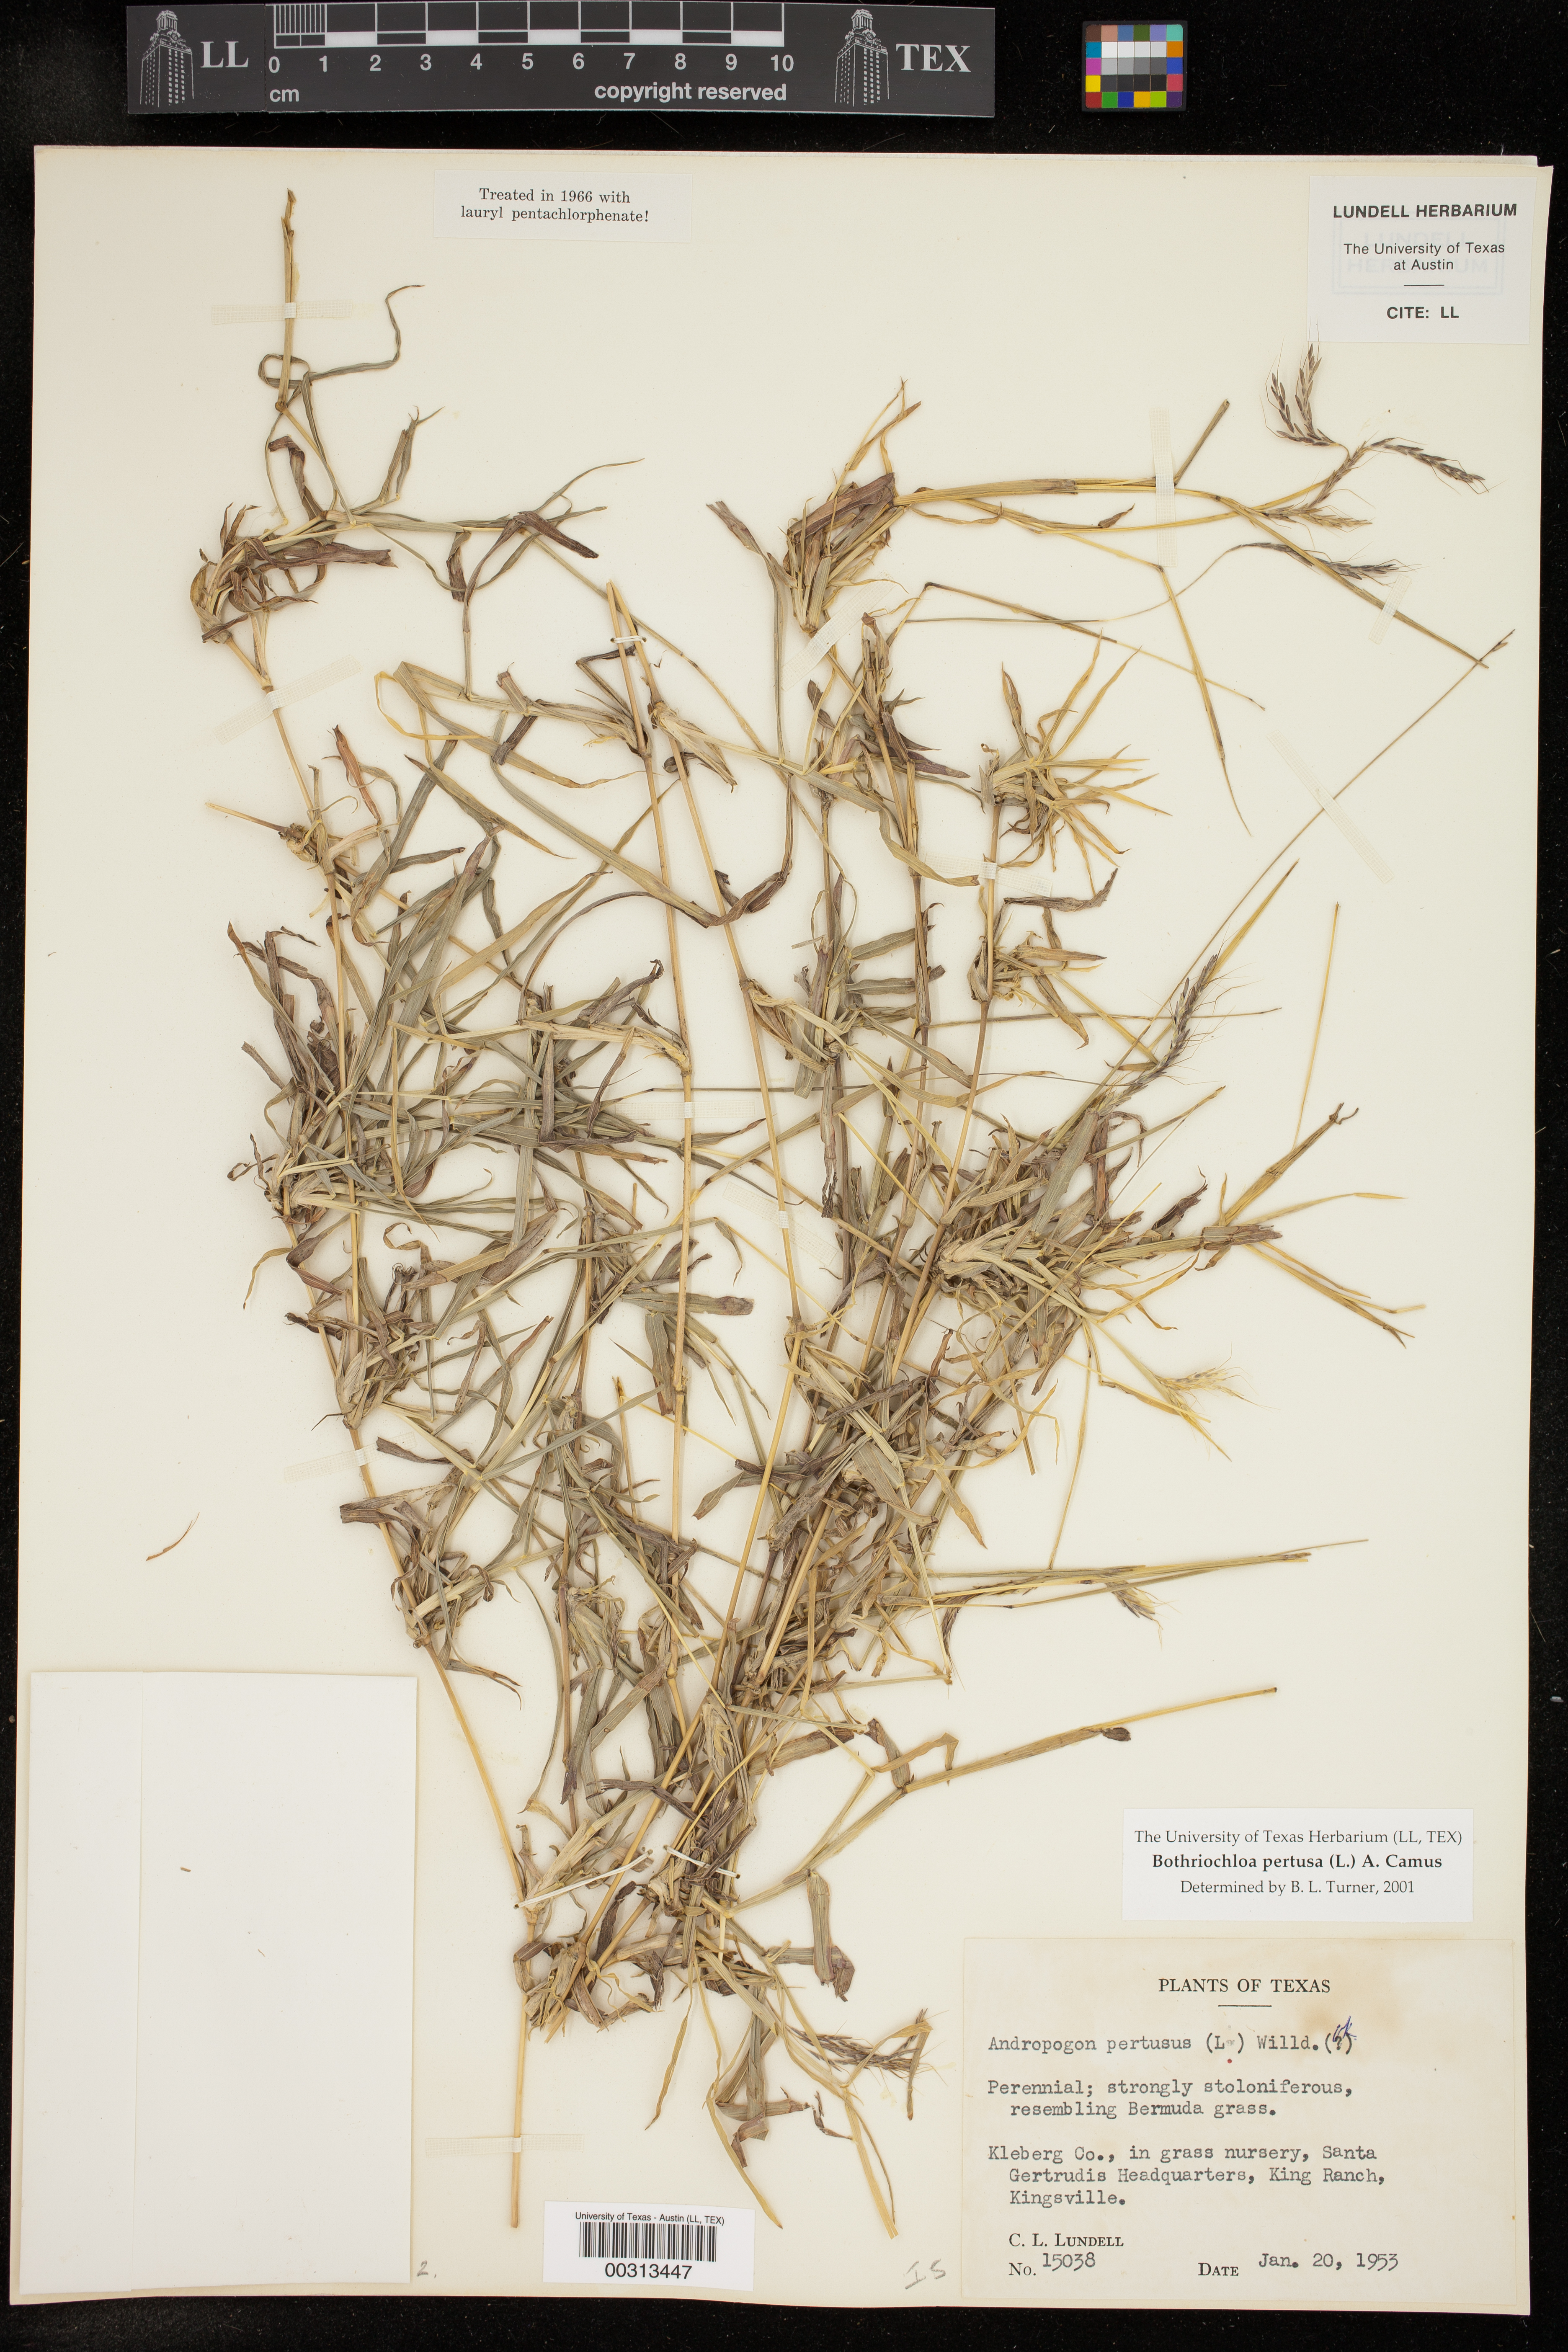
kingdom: Plantae
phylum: Tracheophyta
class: Liliopsida
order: Poales
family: Poaceae
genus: Bothriochloa
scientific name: Bothriochloa pertusa
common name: Pitted beardgrass
